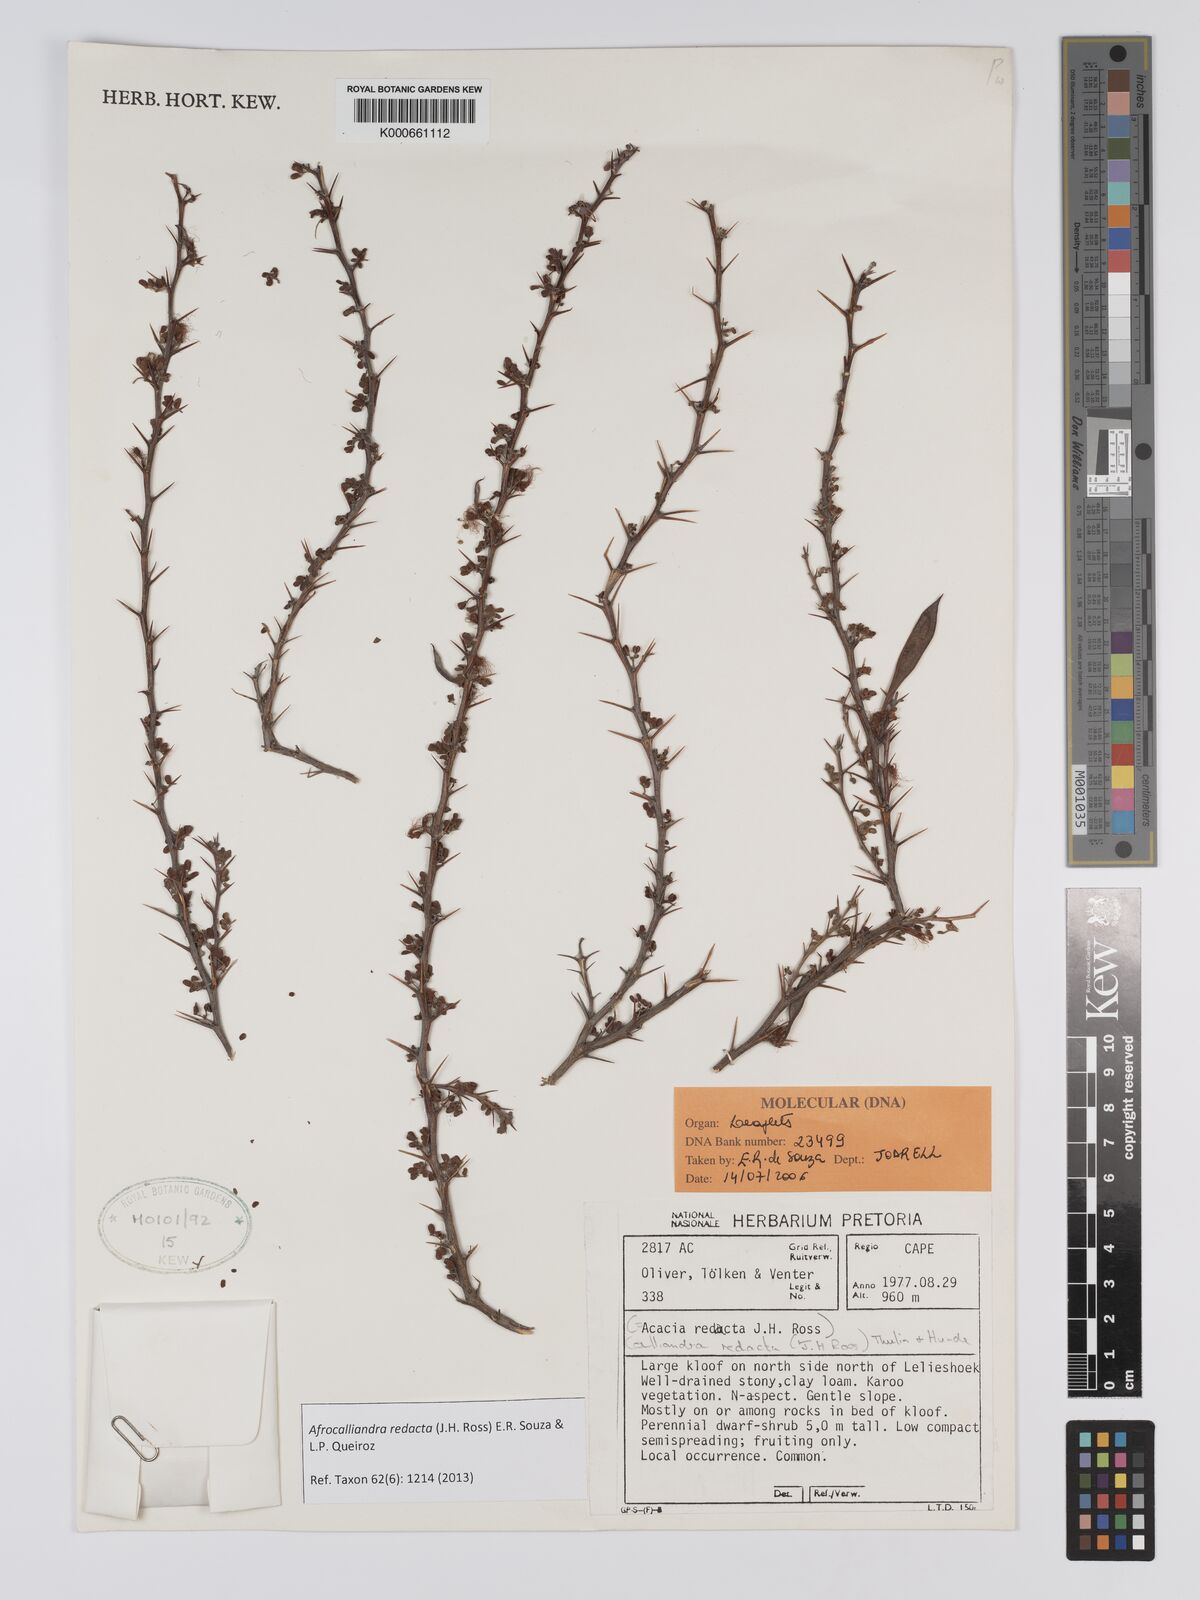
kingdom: Plantae
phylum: Tracheophyta
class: Magnoliopsida
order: Fabales
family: Fabaceae
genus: Afrocalliandra
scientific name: Afrocalliandra redacta
